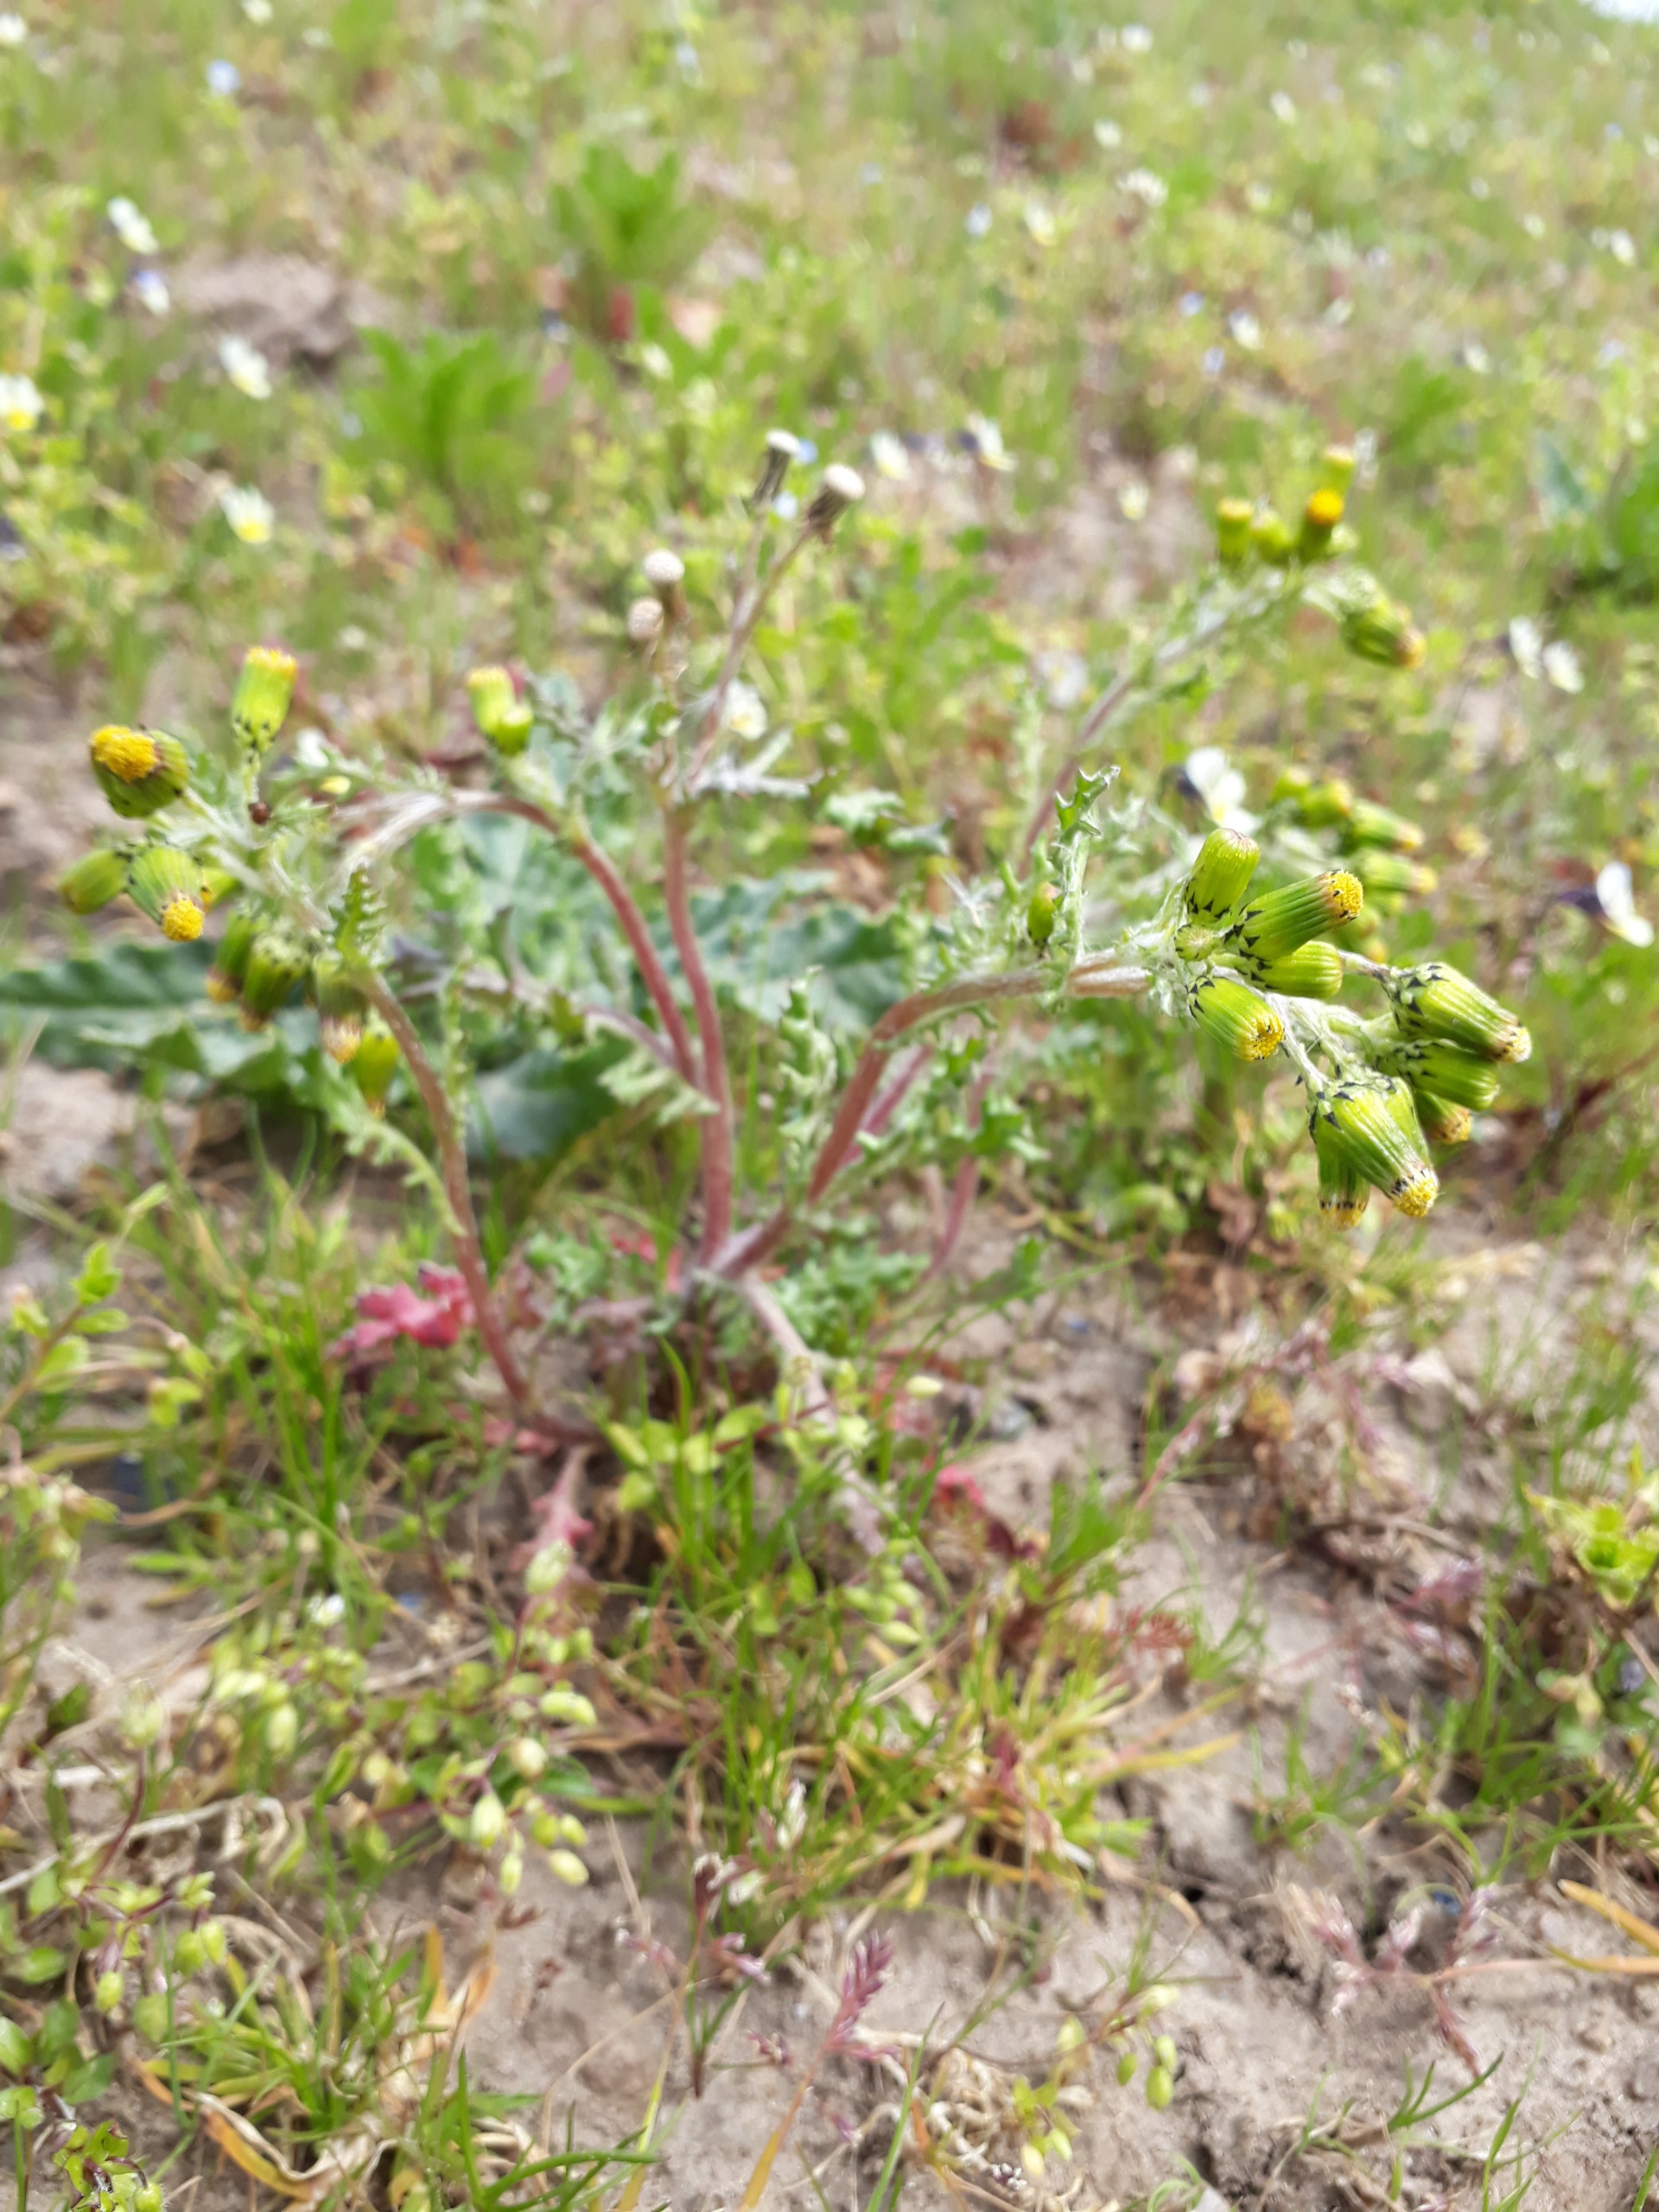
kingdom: Plantae
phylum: Tracheophyta
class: Magnoliopsida
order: Asterales
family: Asteraceae
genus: Senecio
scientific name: Senecio vulgaris
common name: Almindelig brandbæger
